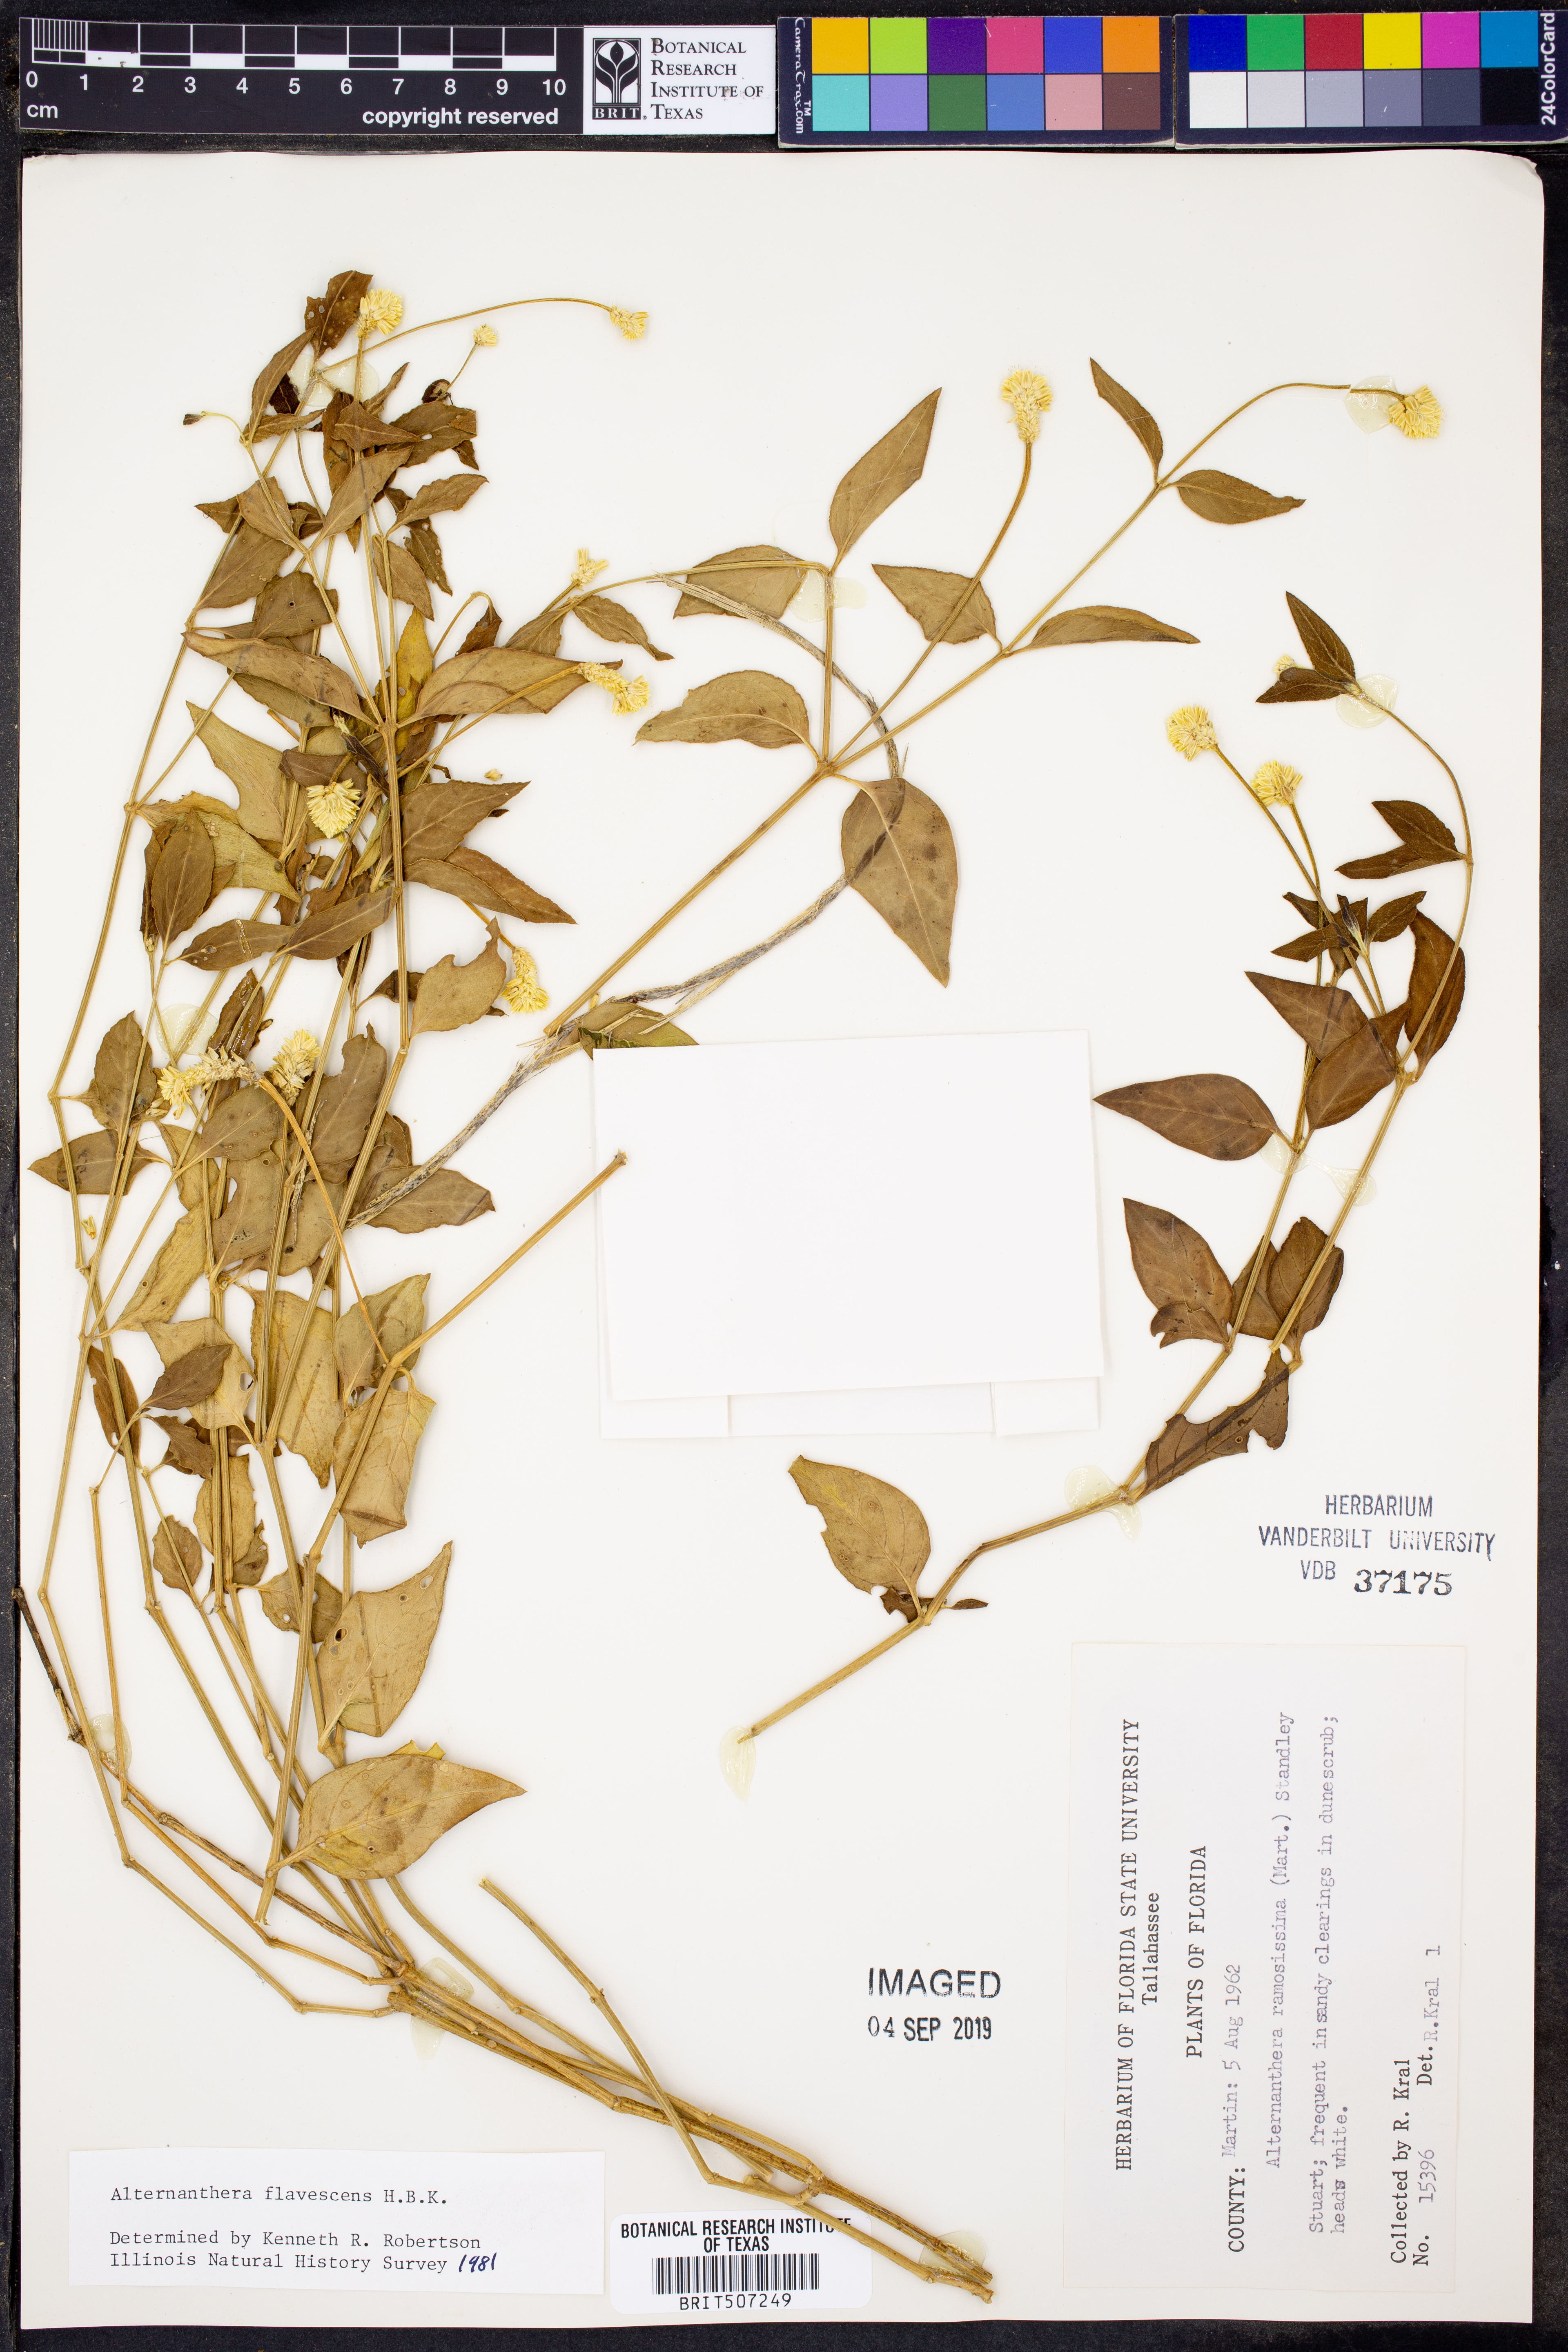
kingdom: Plantae
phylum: Tracheophyta
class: Magnoliopsida
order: Caryophyllales
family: Amaranthaceae
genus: Alternanthera
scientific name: Alternanthera flavescens
